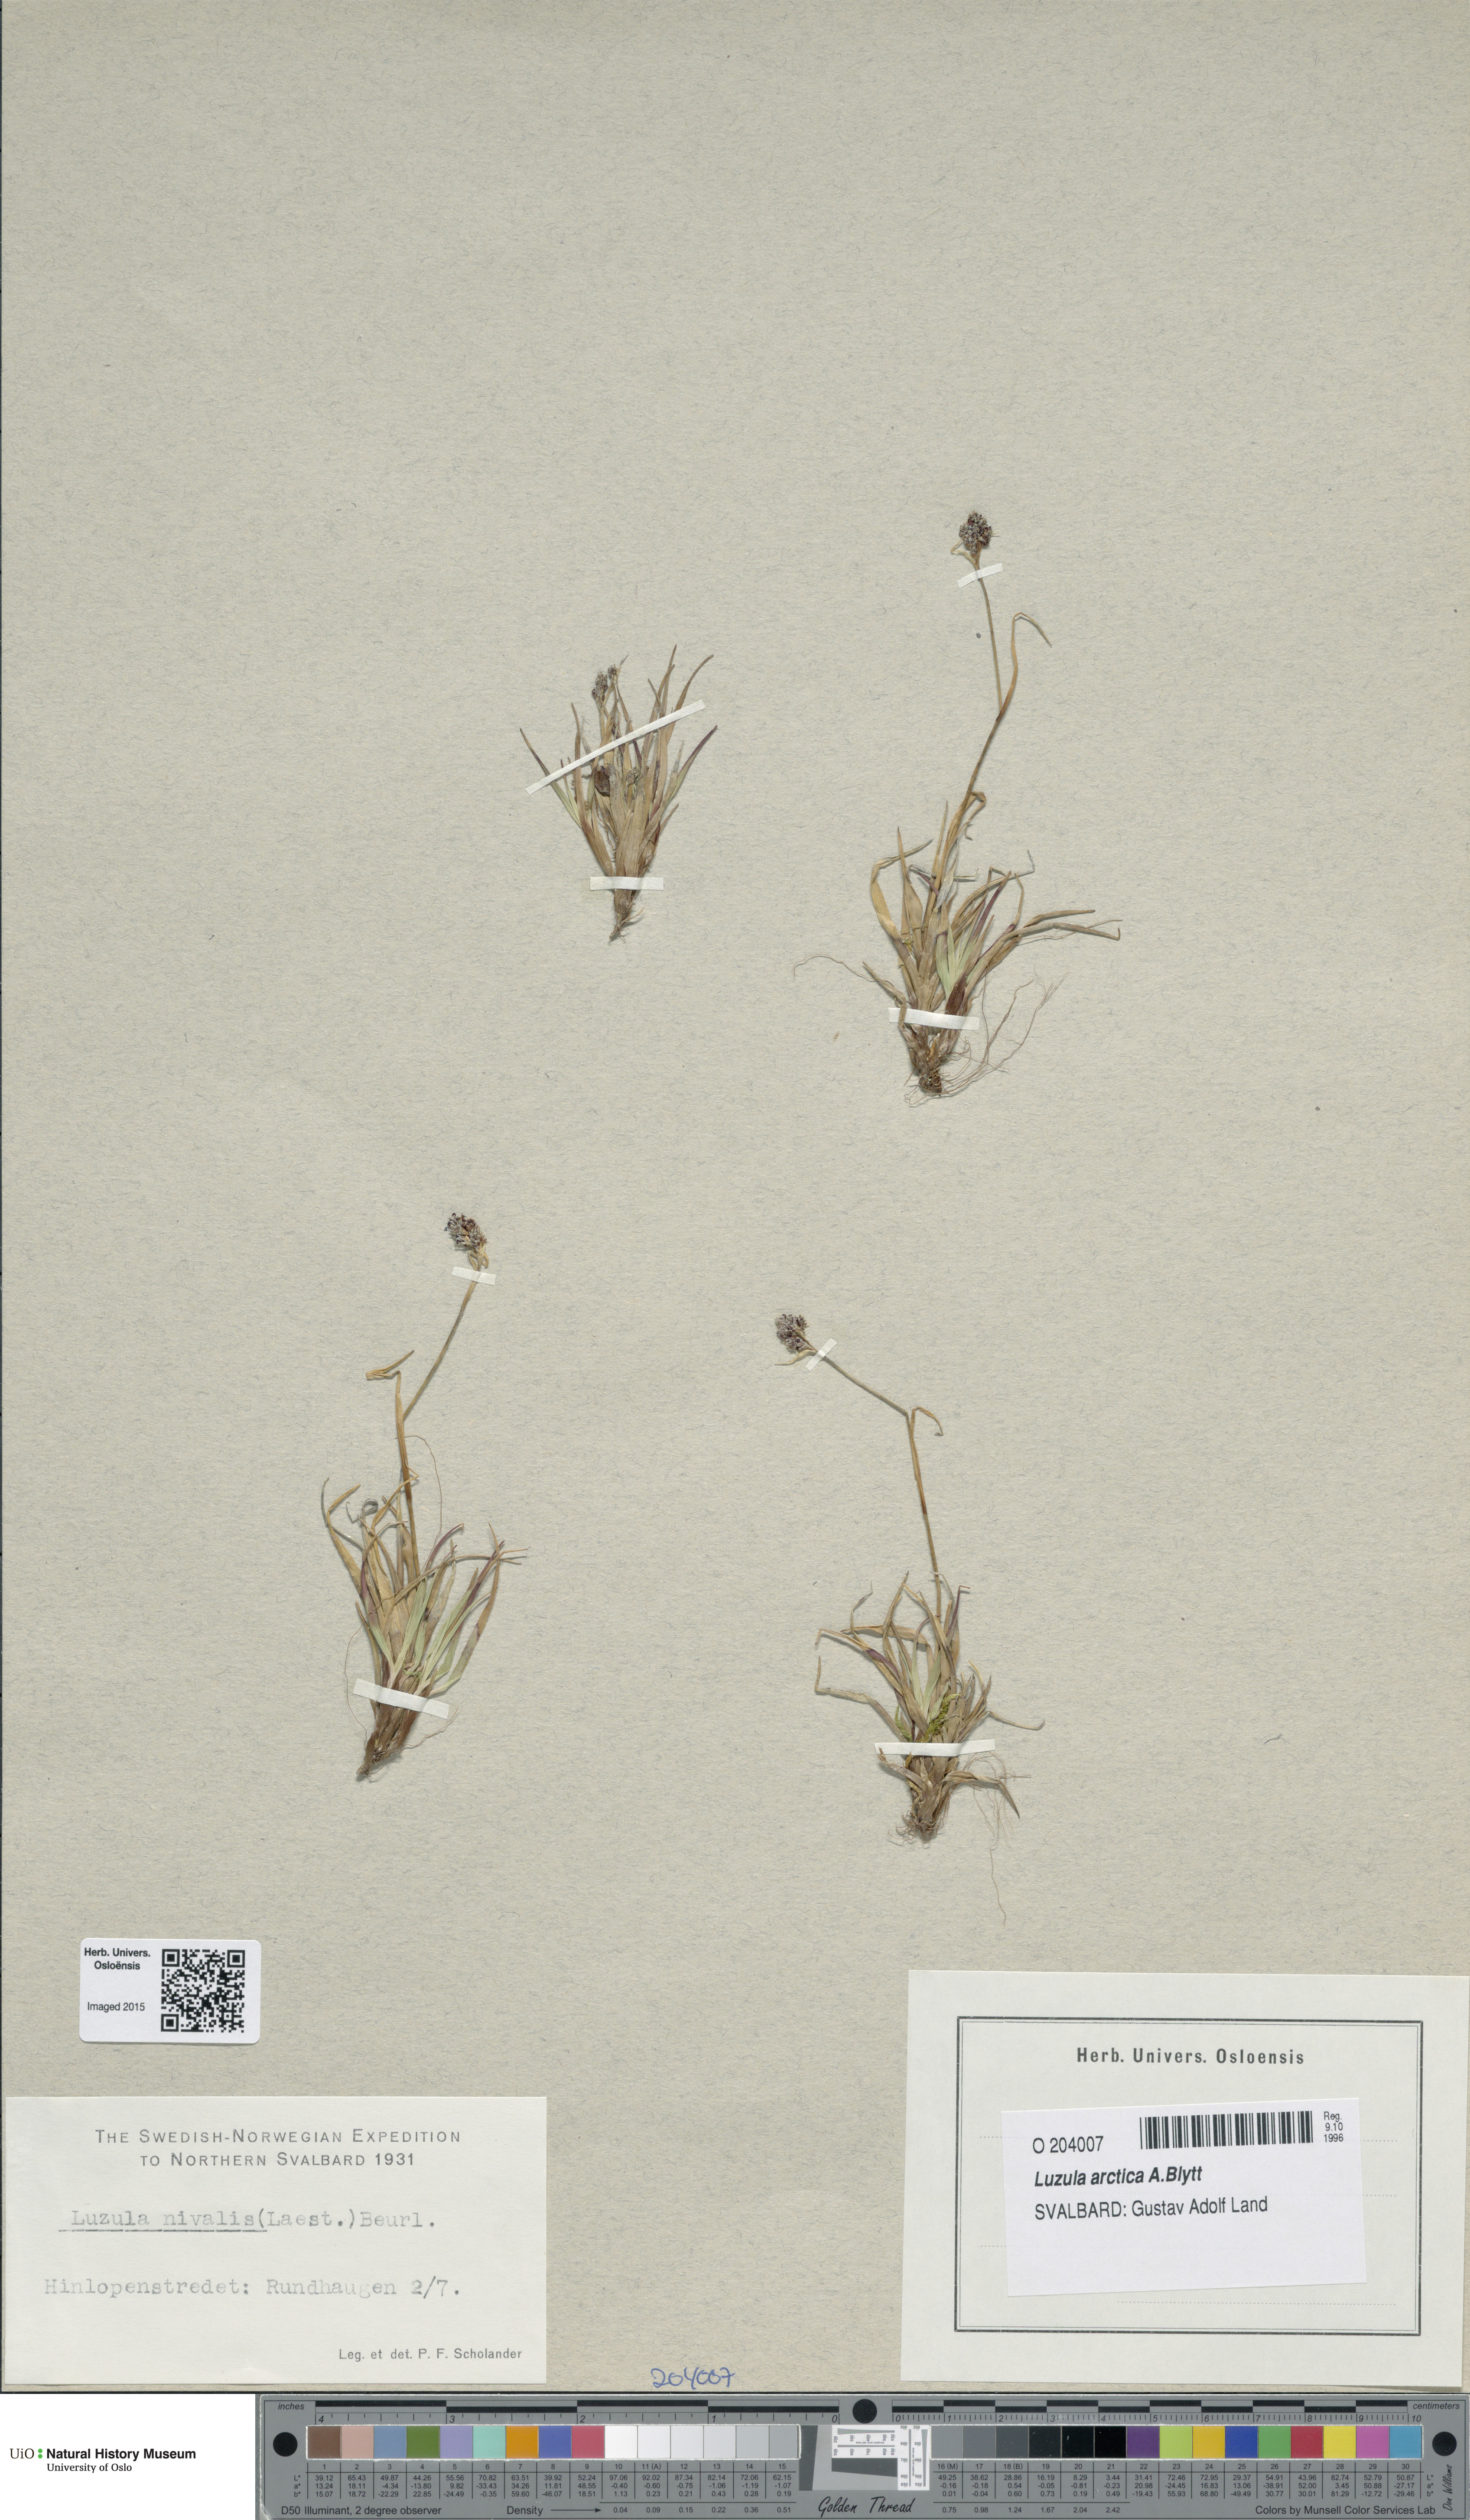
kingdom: Plantae
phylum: Tracheophyta
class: Liliopsida
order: Poales
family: Juncaceae
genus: Luzula
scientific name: Luzula nivalis
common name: Arctic woodrush
